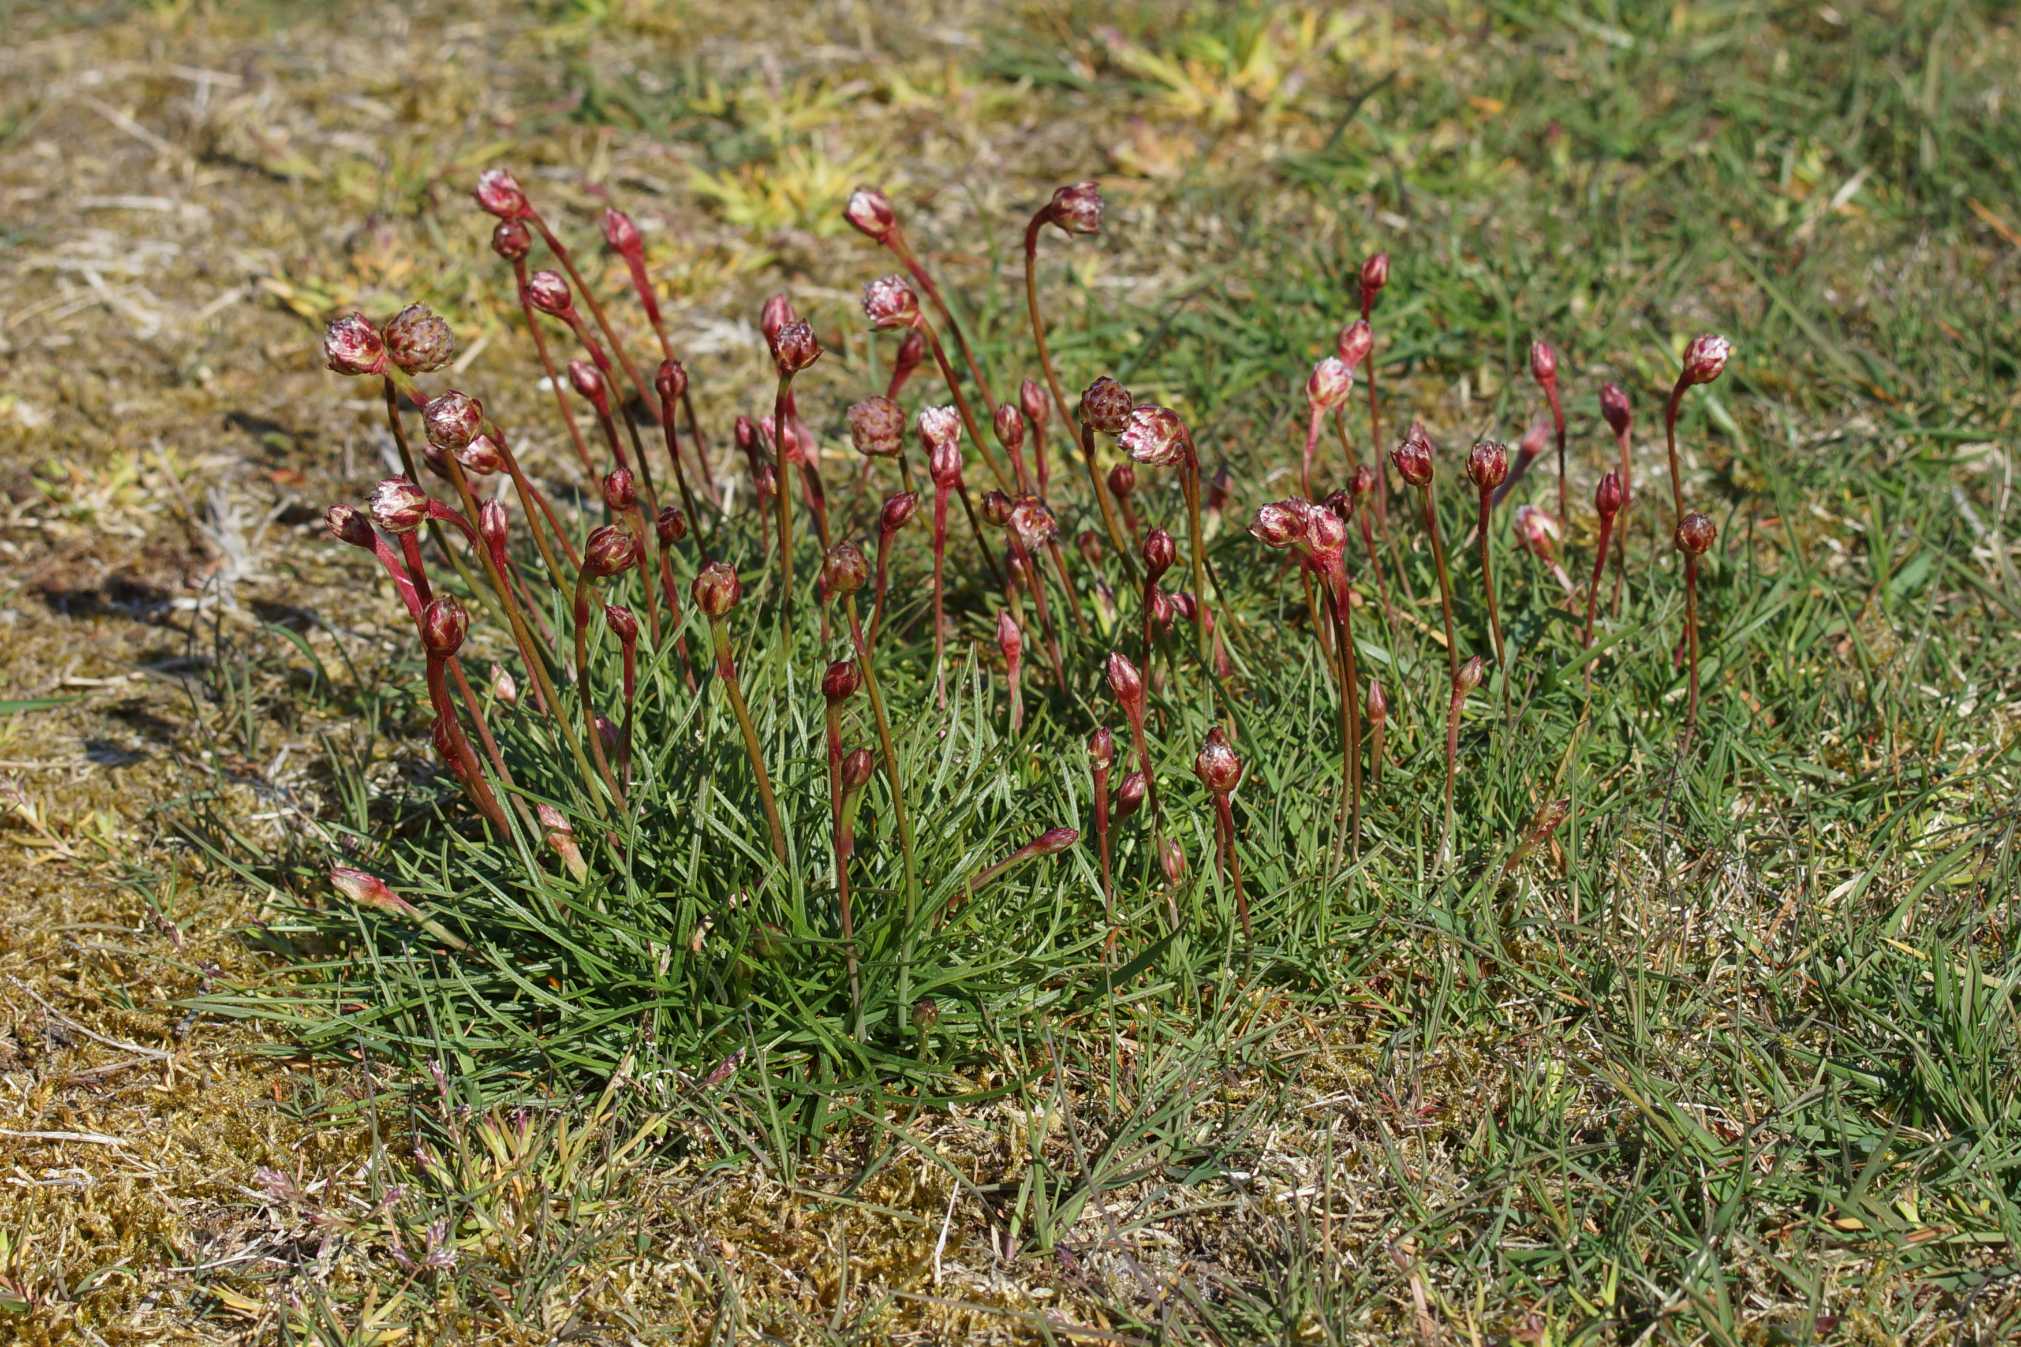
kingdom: Plantae
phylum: Tracheophyta
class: Magnoliopsida
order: Caryophyllales
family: Plumbaginaceae
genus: Armeria
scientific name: Armeria maritima
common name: Engelskgræs
